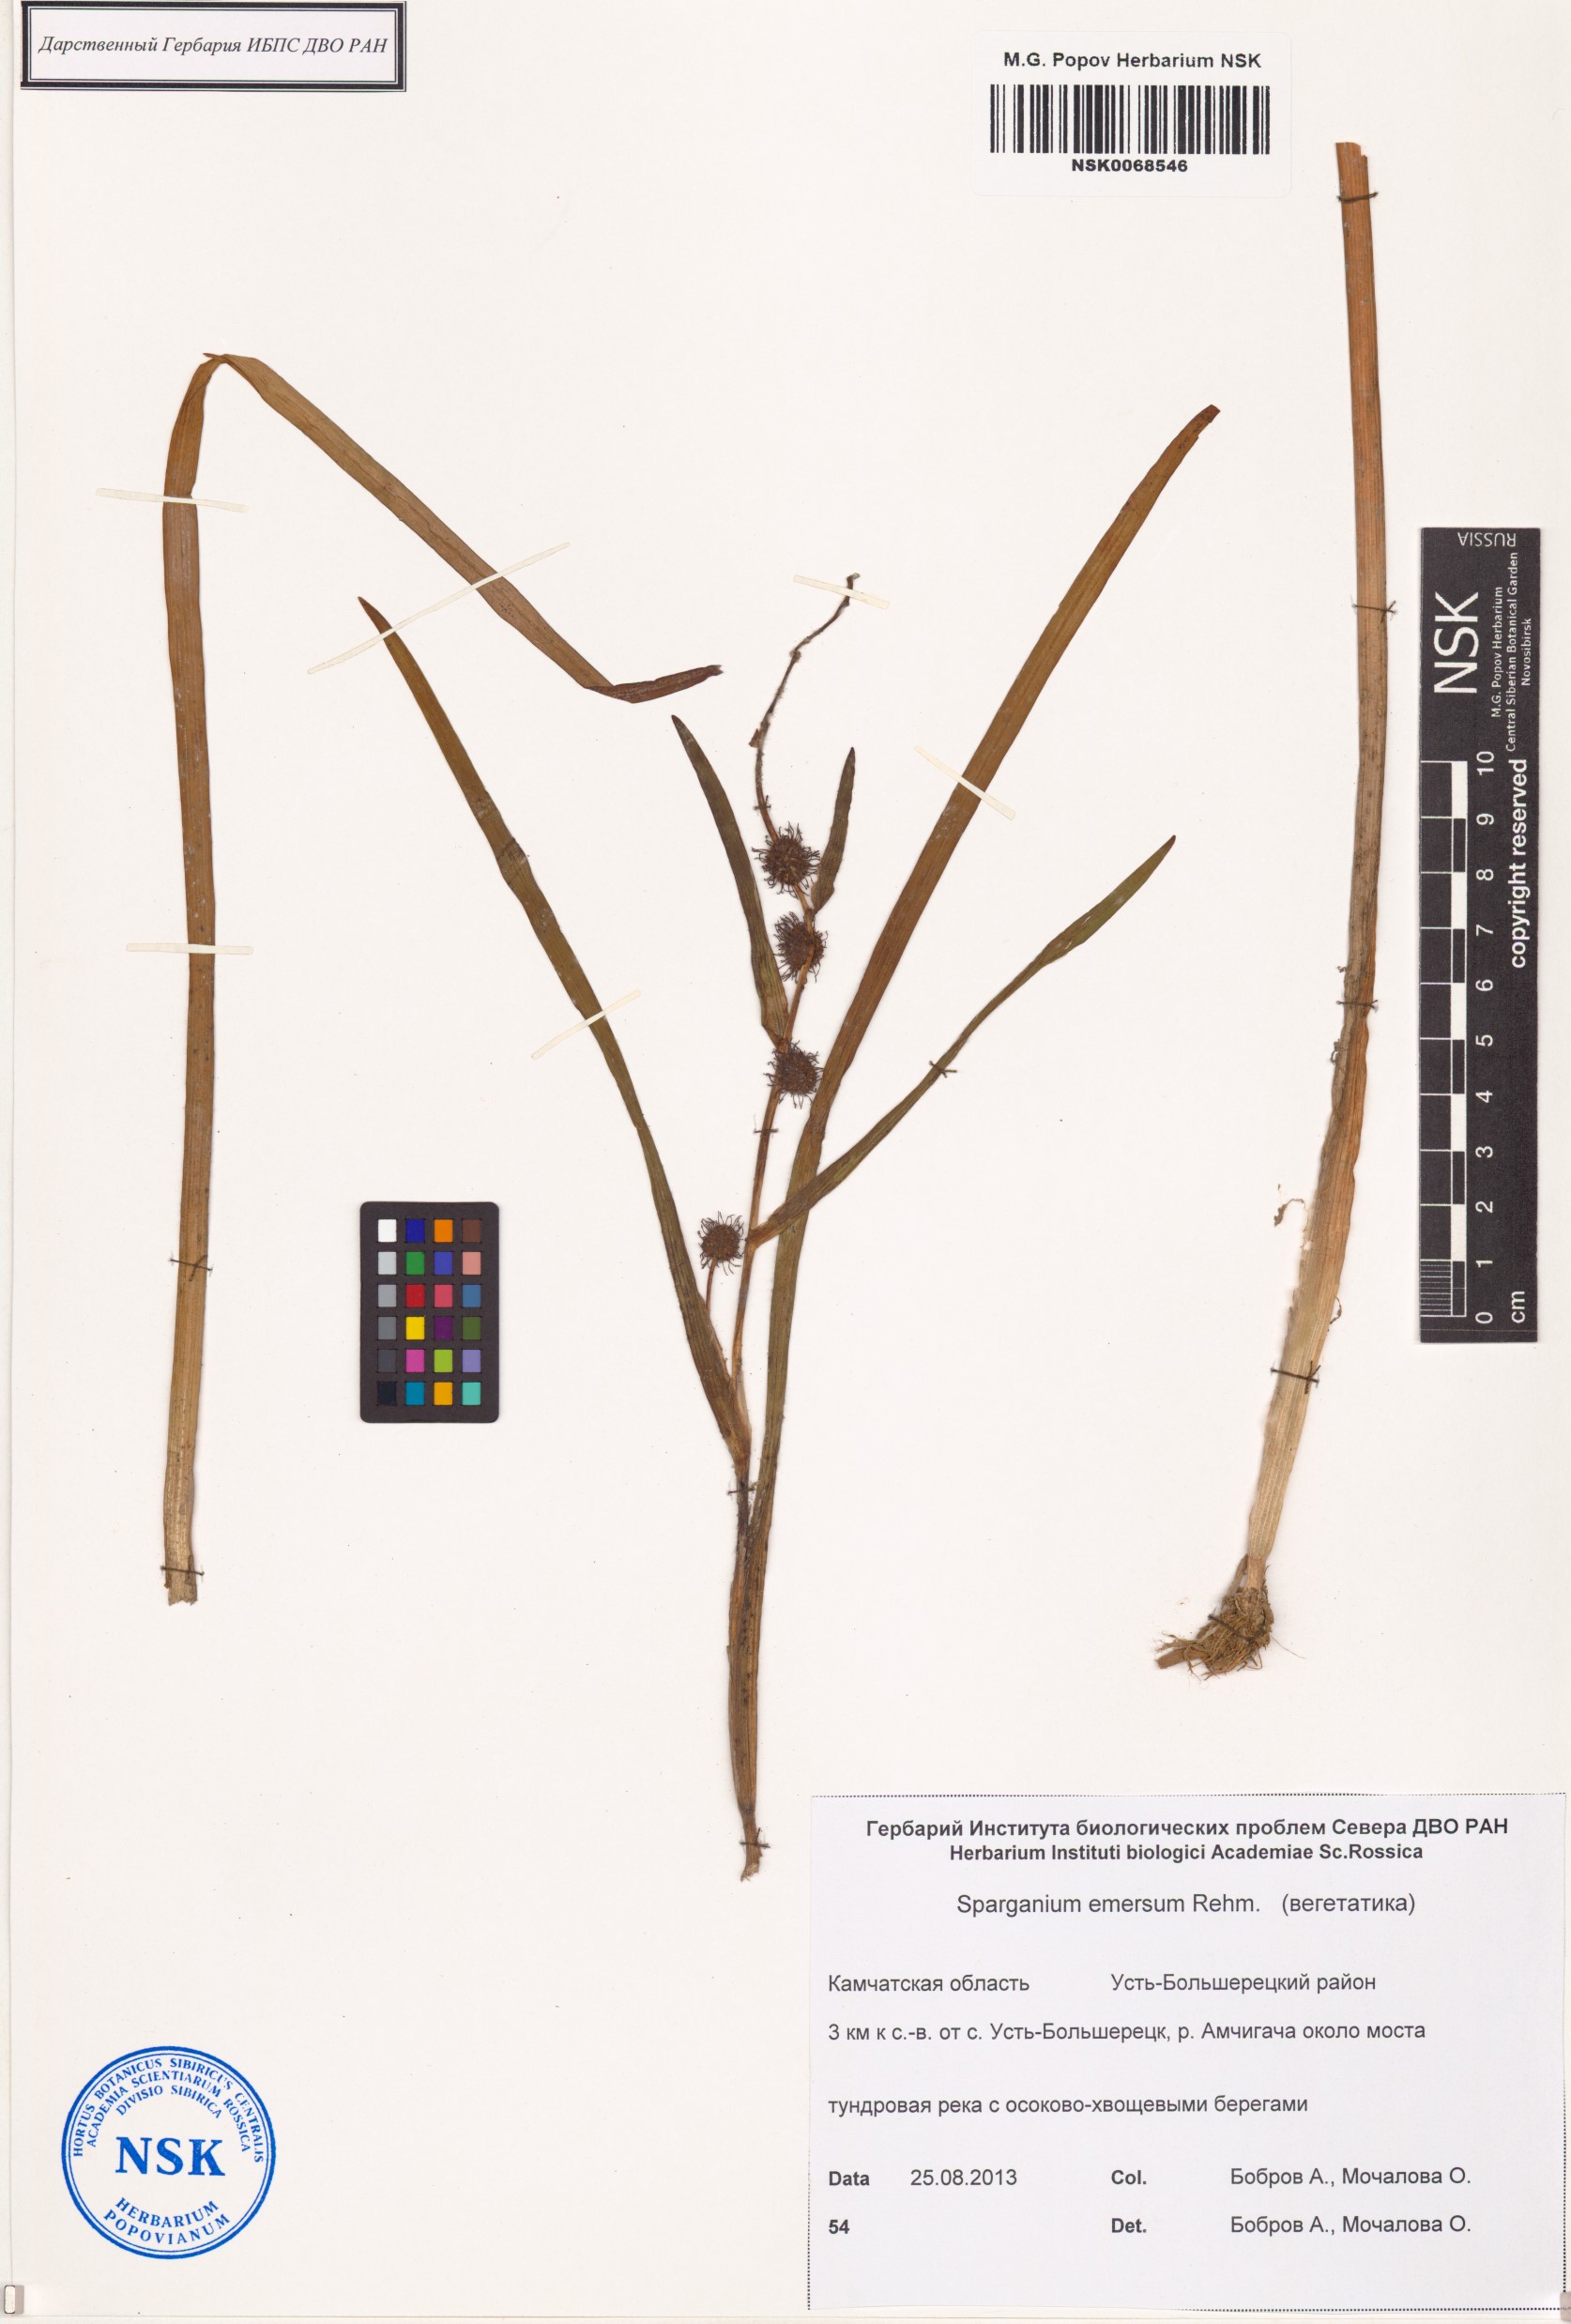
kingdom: Plantae
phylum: Tracheophyta
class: Liliopsida
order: Poales
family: Typhaceae
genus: Sparganium
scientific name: Sparganium emersum
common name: Unbranched bur-reed
